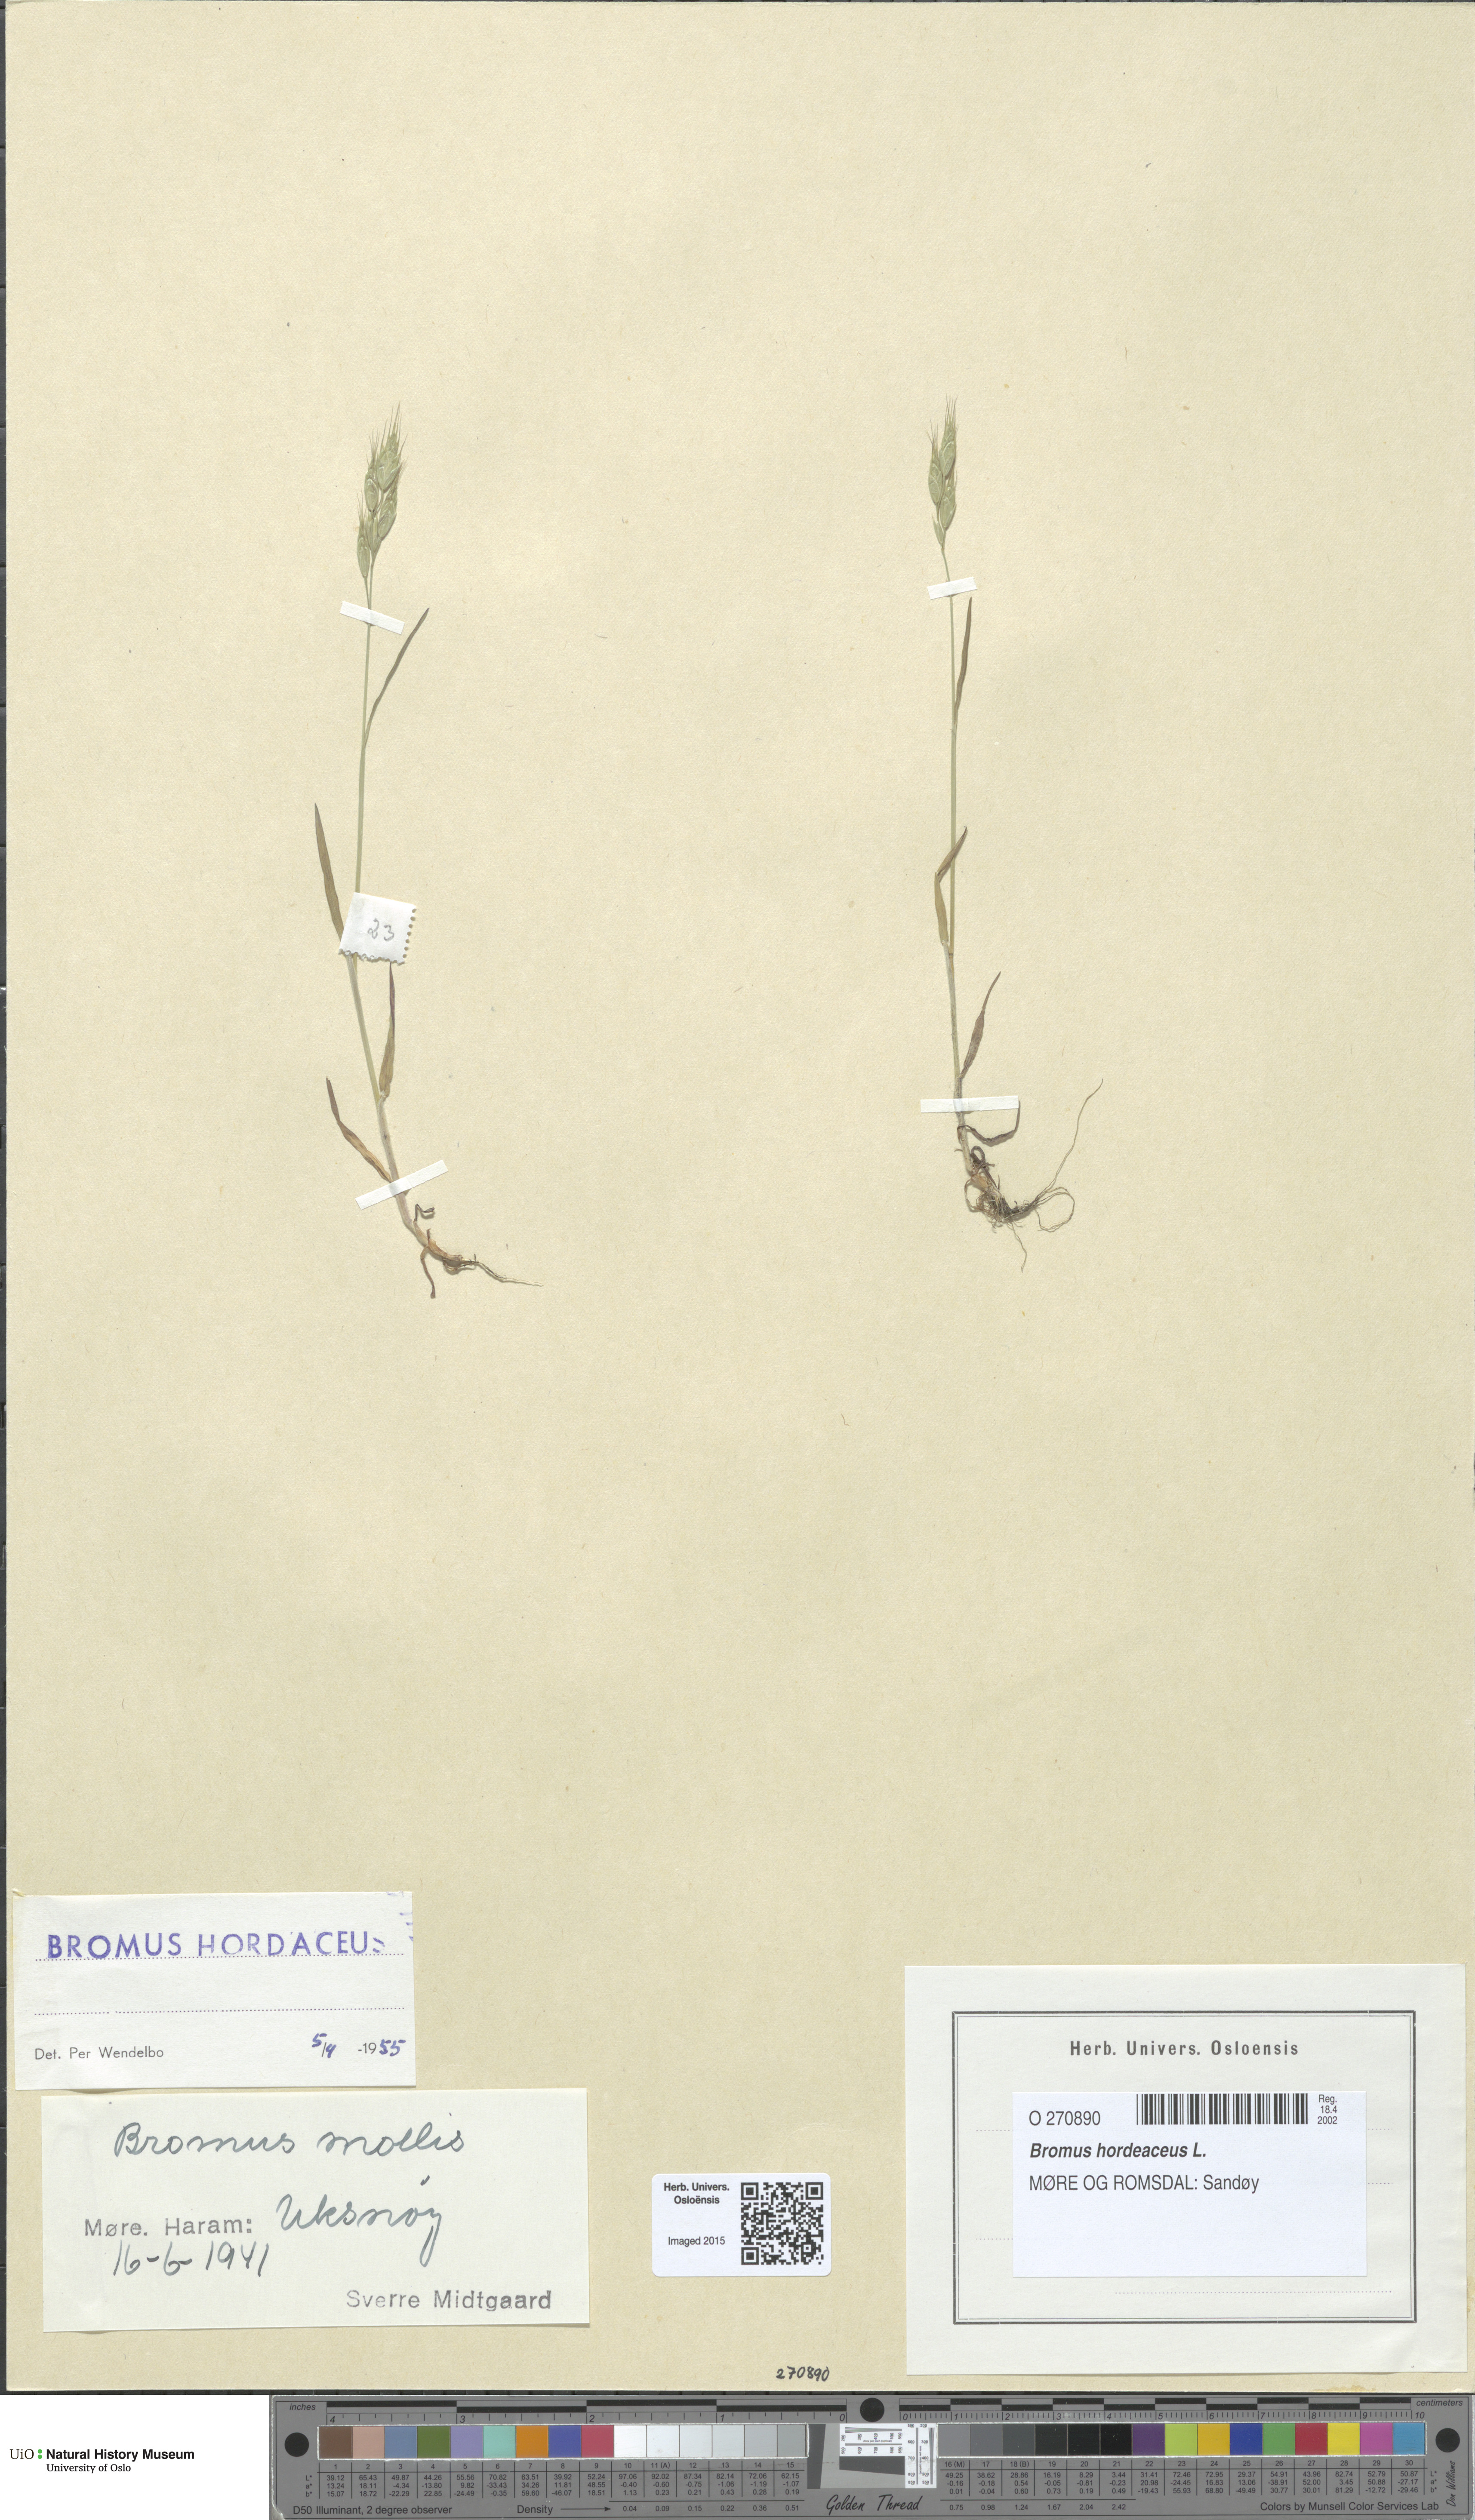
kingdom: Plantae
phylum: Tracheophyta
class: Liliopsida
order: Poales
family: Poaceae
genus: Bromus
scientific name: Bromus hordeaceus
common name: Soft brome
